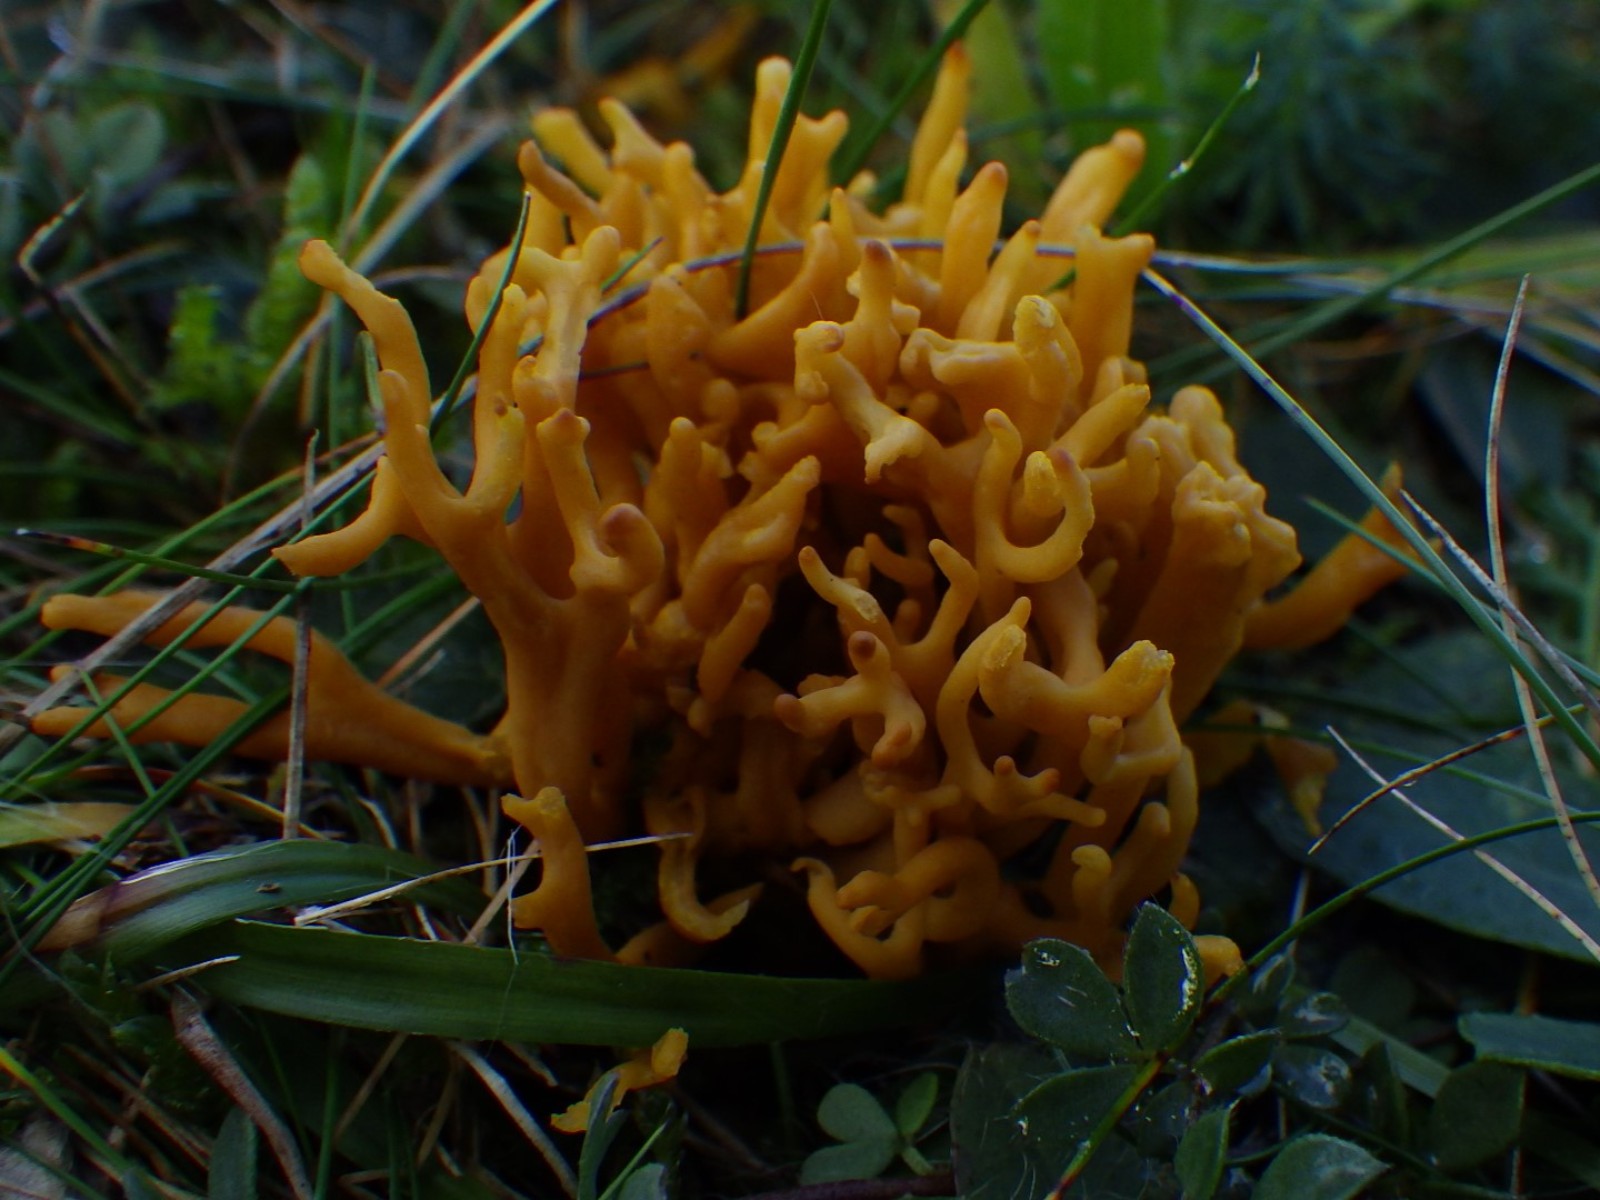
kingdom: Fungi
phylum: Basidiomycota
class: Agaricomycetes
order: Agaricales
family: Clavariaceae
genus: Clavulinopsis
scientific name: Clavulinopsis corniculata
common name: eng-køllesvamp
